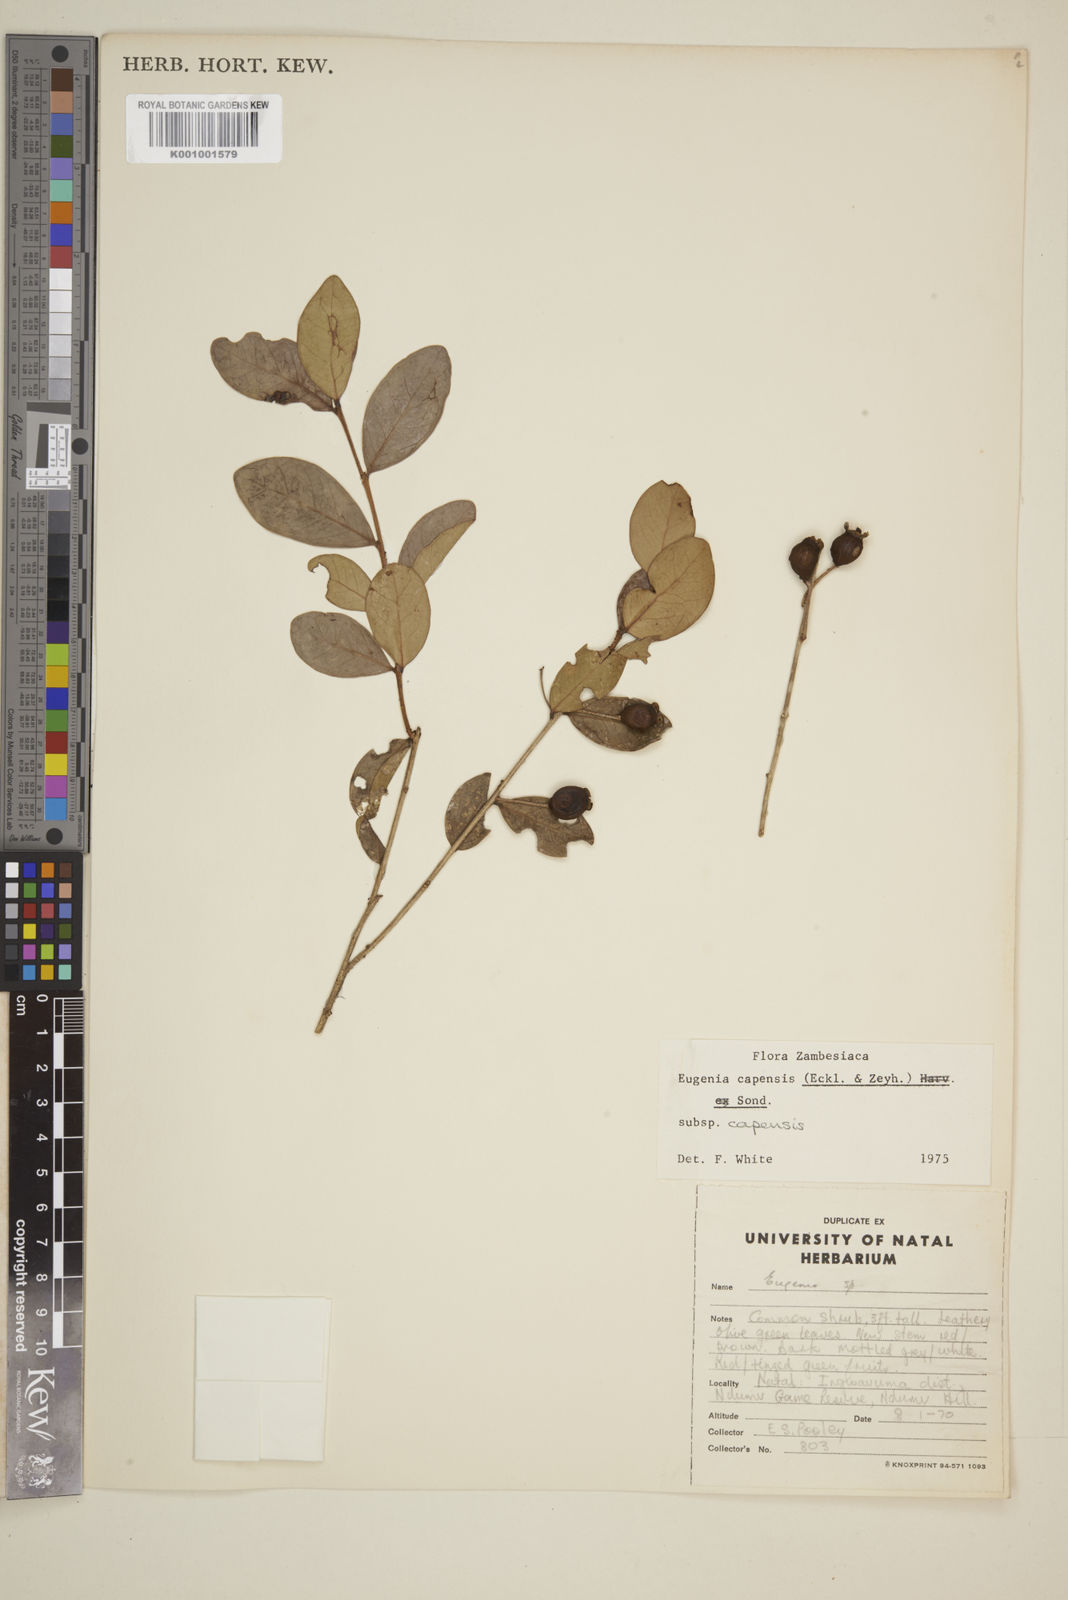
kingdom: Plantae
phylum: Tracheophyta
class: Magnoliopsida
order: Myrtales
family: Myrtaceae
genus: Eugenia
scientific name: Eugenia capensis
